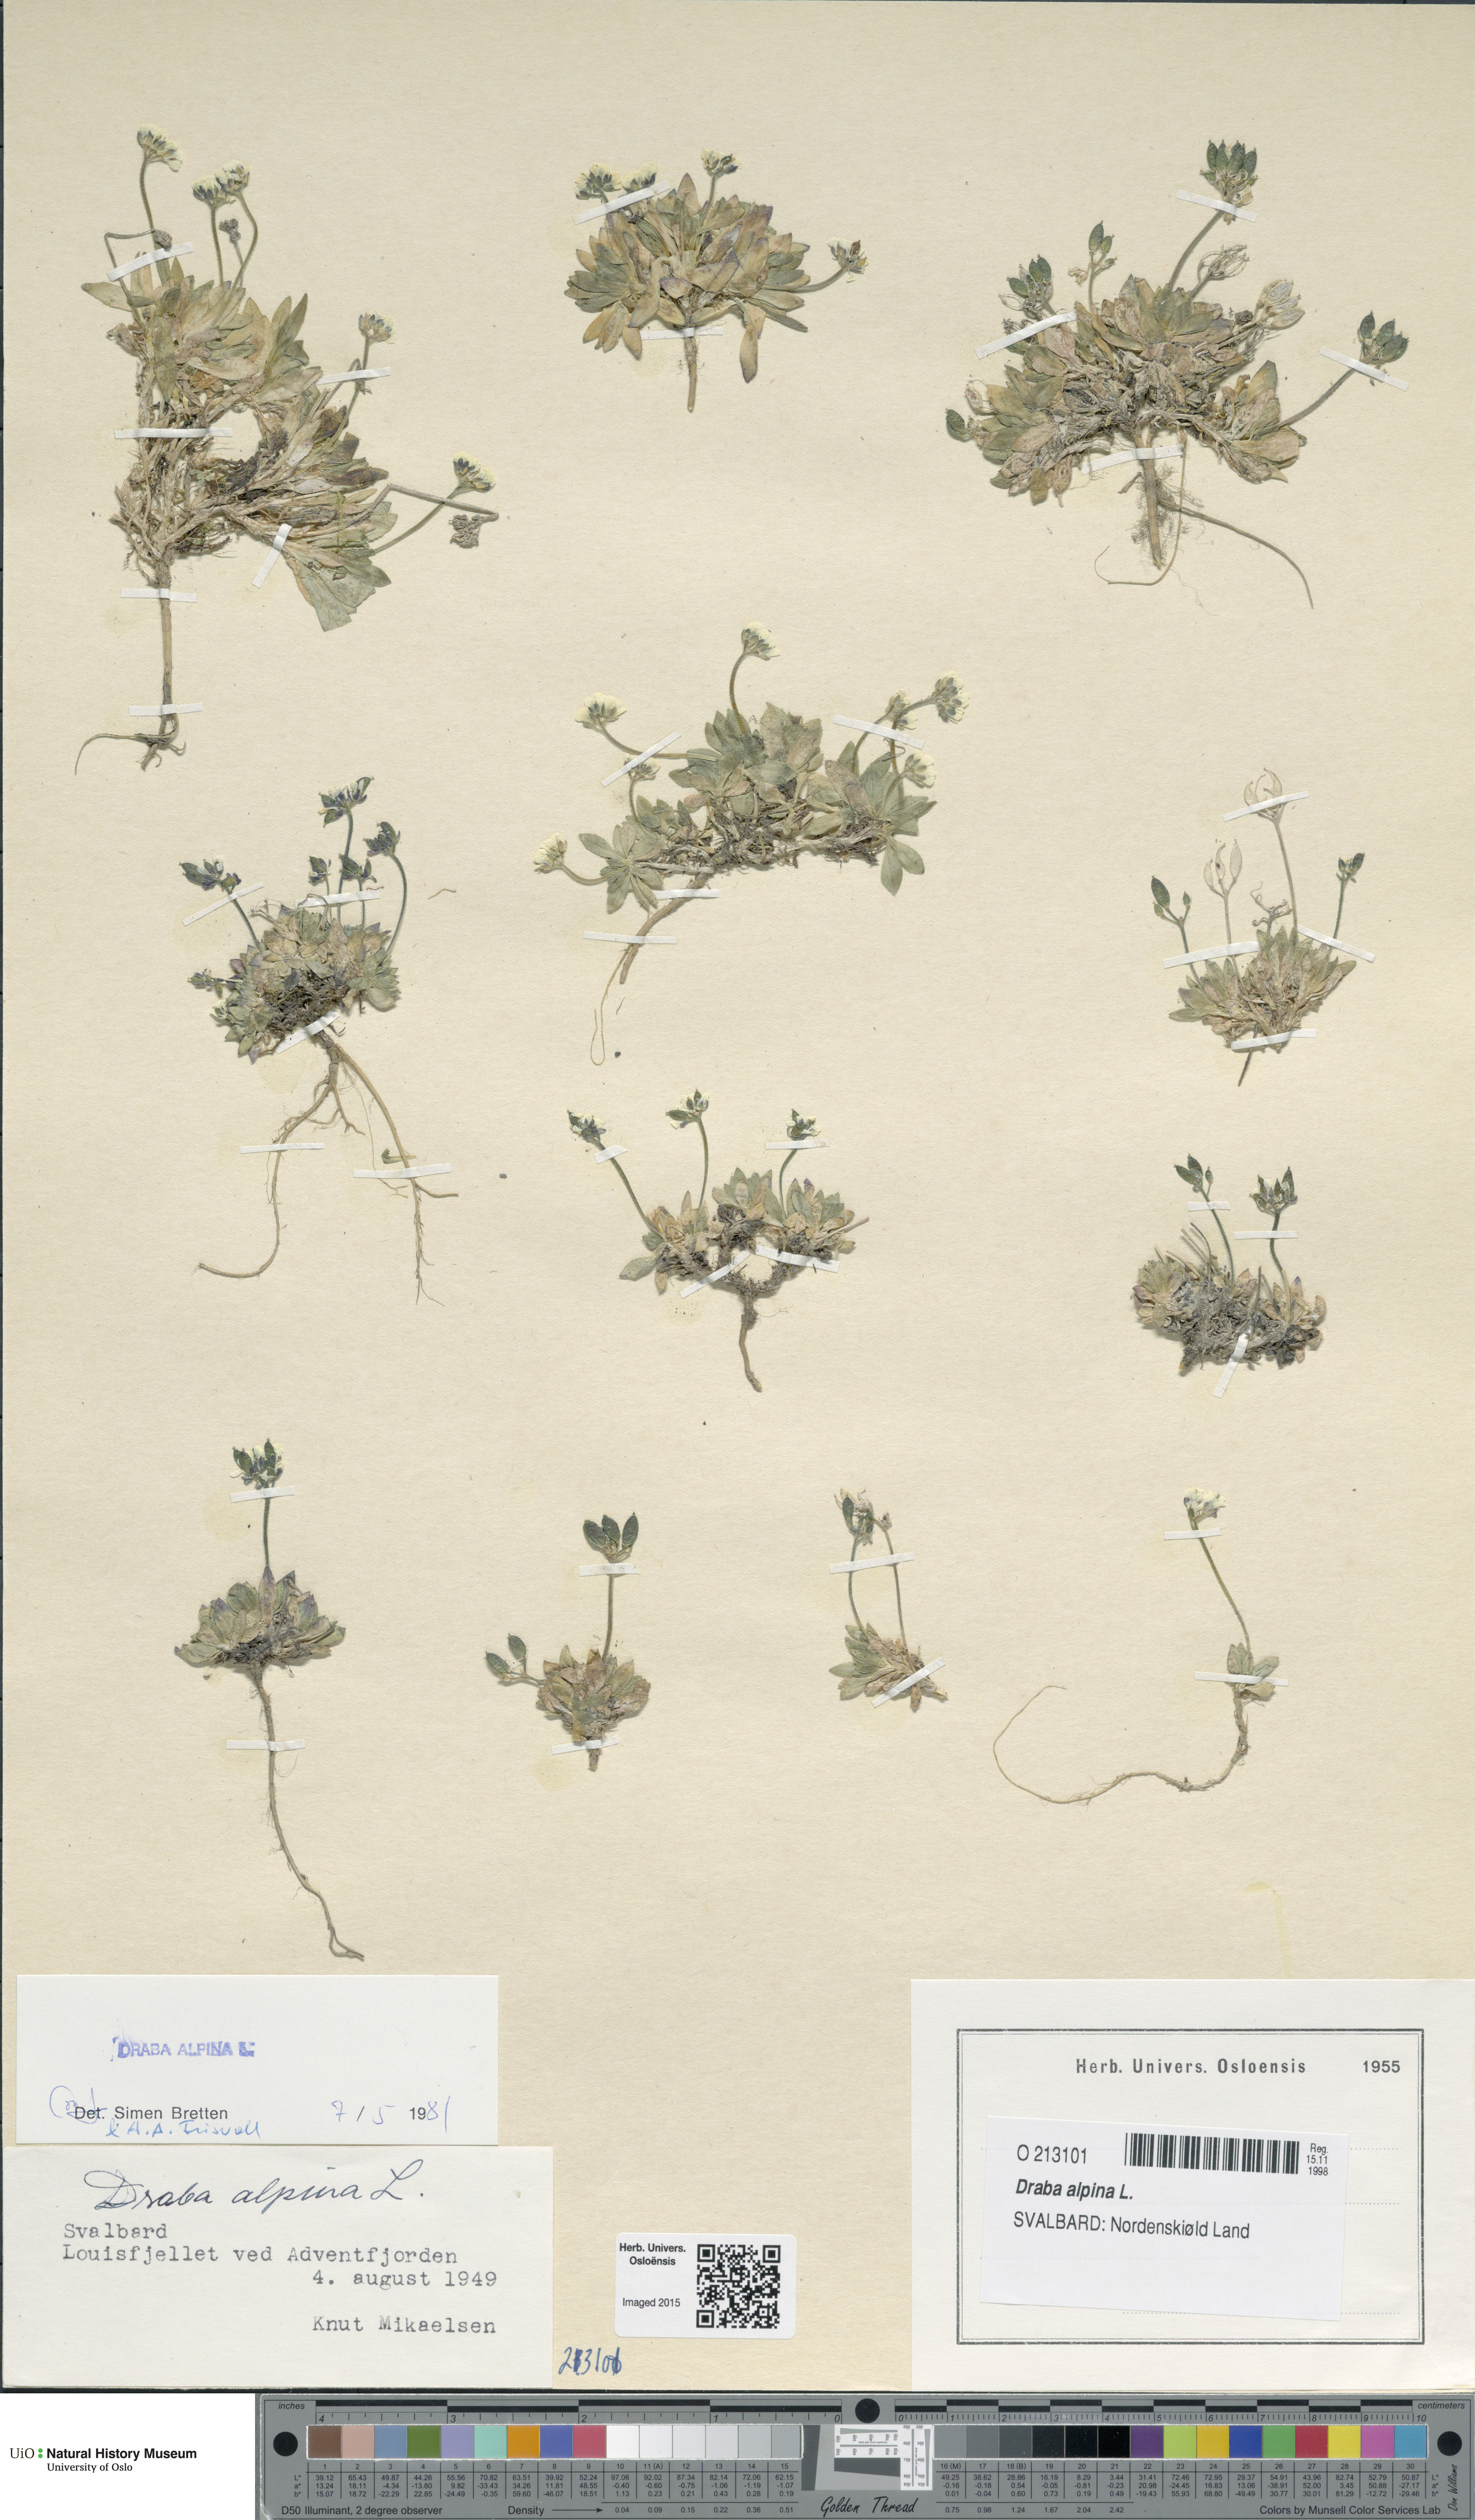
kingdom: Plantae
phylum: Tracheophyta
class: Magnoliopsida
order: Brassicales
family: Brassicaceae
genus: Draba
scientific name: Draba alpina
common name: Alpine draba
